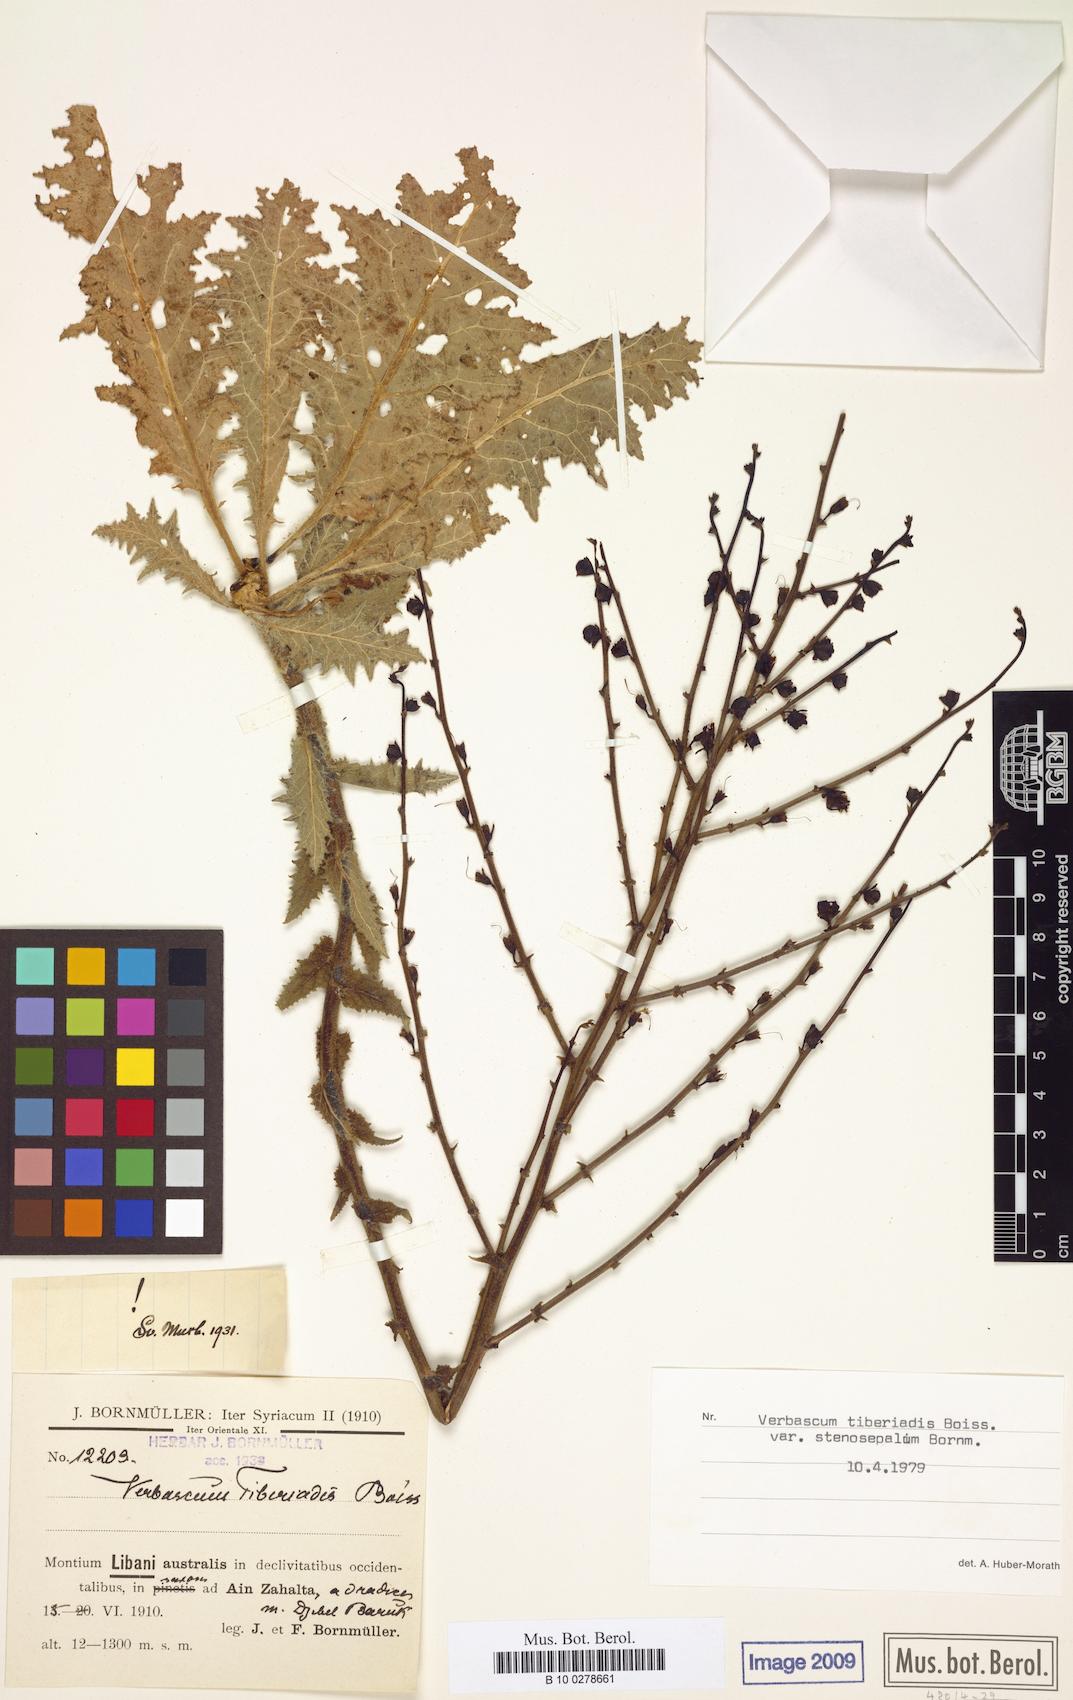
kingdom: Plantae
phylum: Tracheophyta
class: Magnoliopsida
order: Lamiales
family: Scrophulariaceae
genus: Verbascum
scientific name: Verbascum tiberiadis
